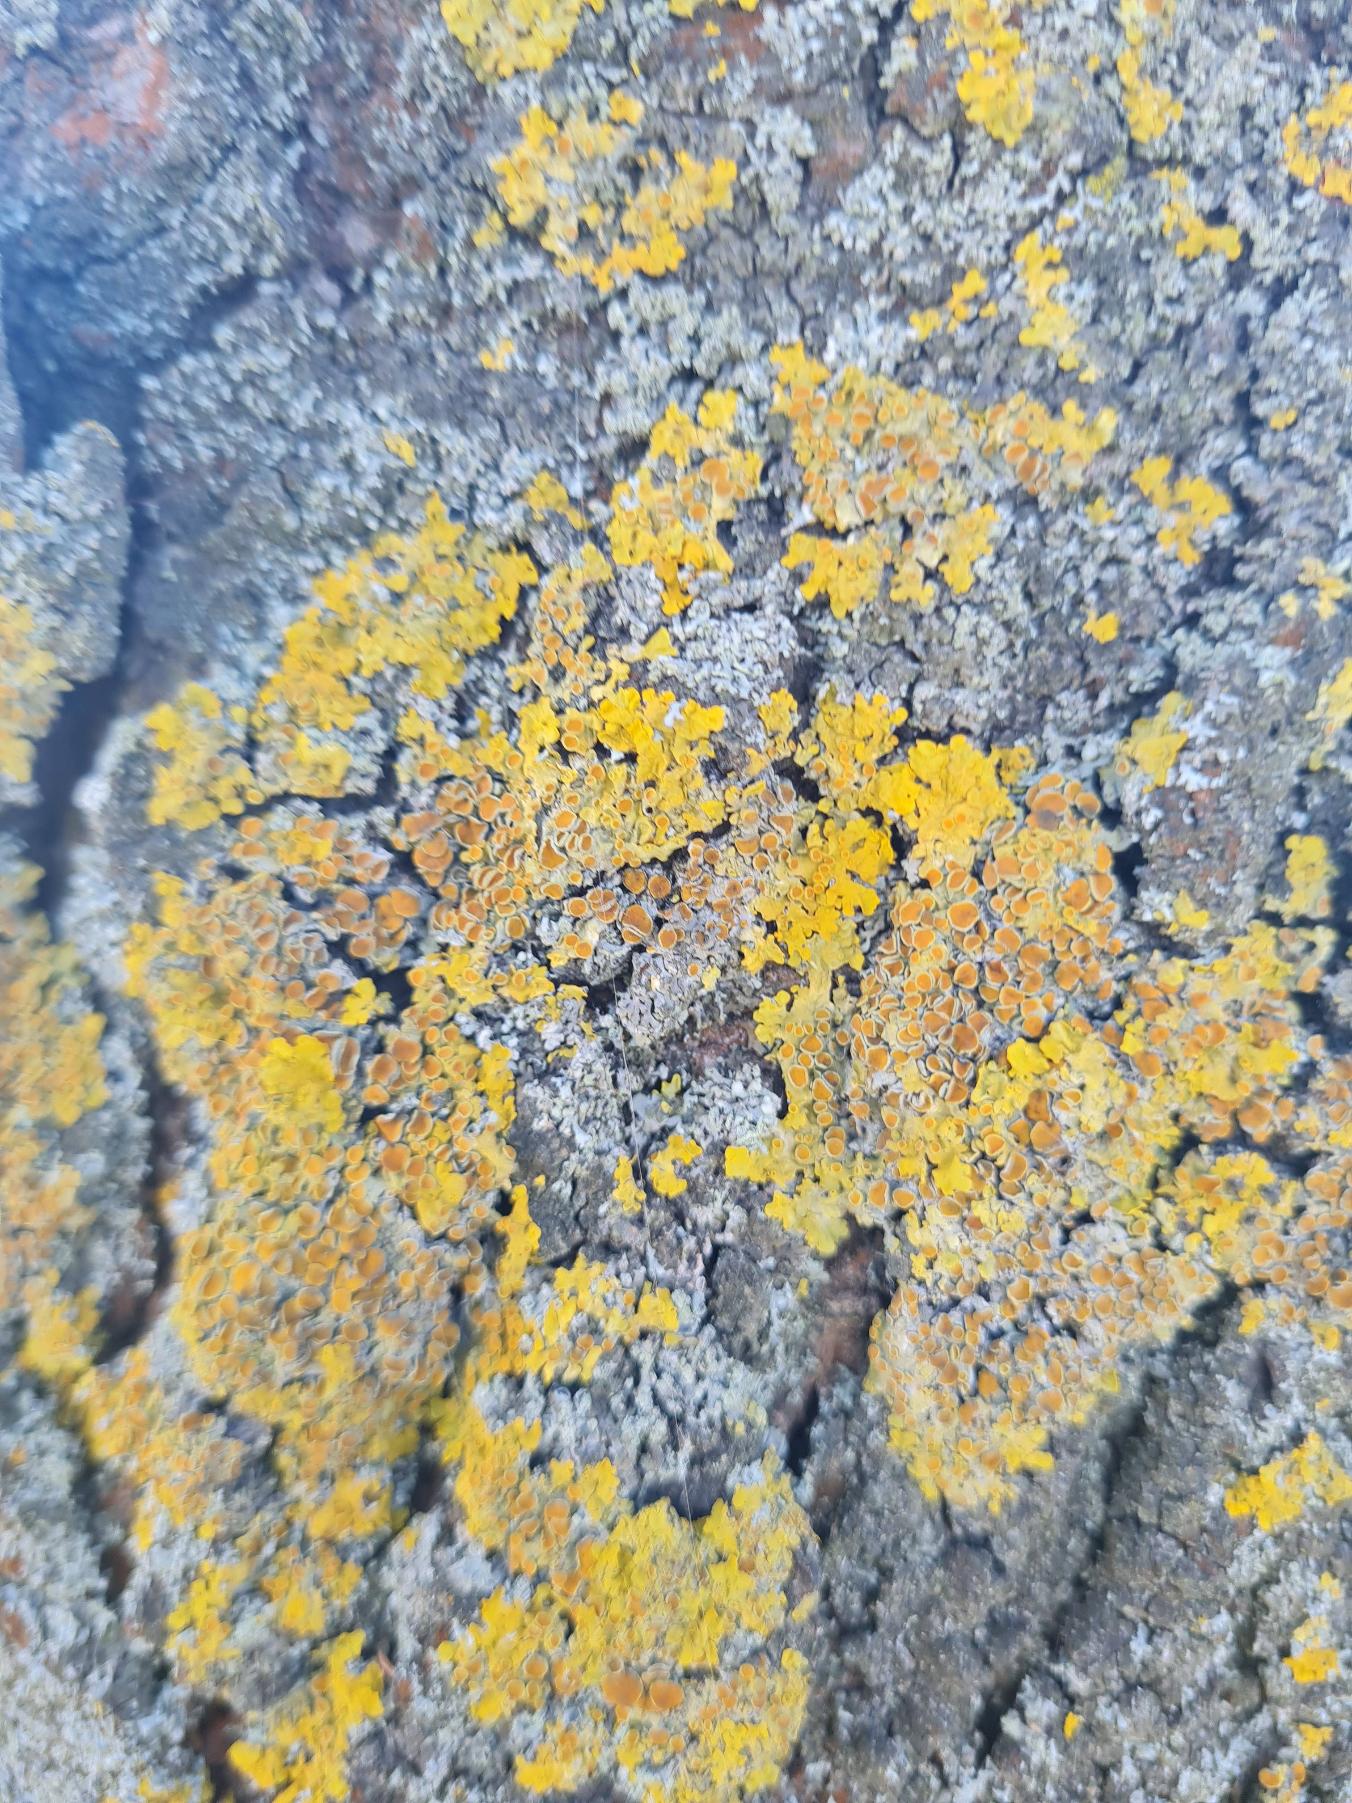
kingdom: Fungi
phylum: Ascomycota
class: Lecanoromycetes
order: Teloschistales
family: Teloschistaceae
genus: Xanthoria
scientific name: Xanthoria parietina
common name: Almindelig væggelav
